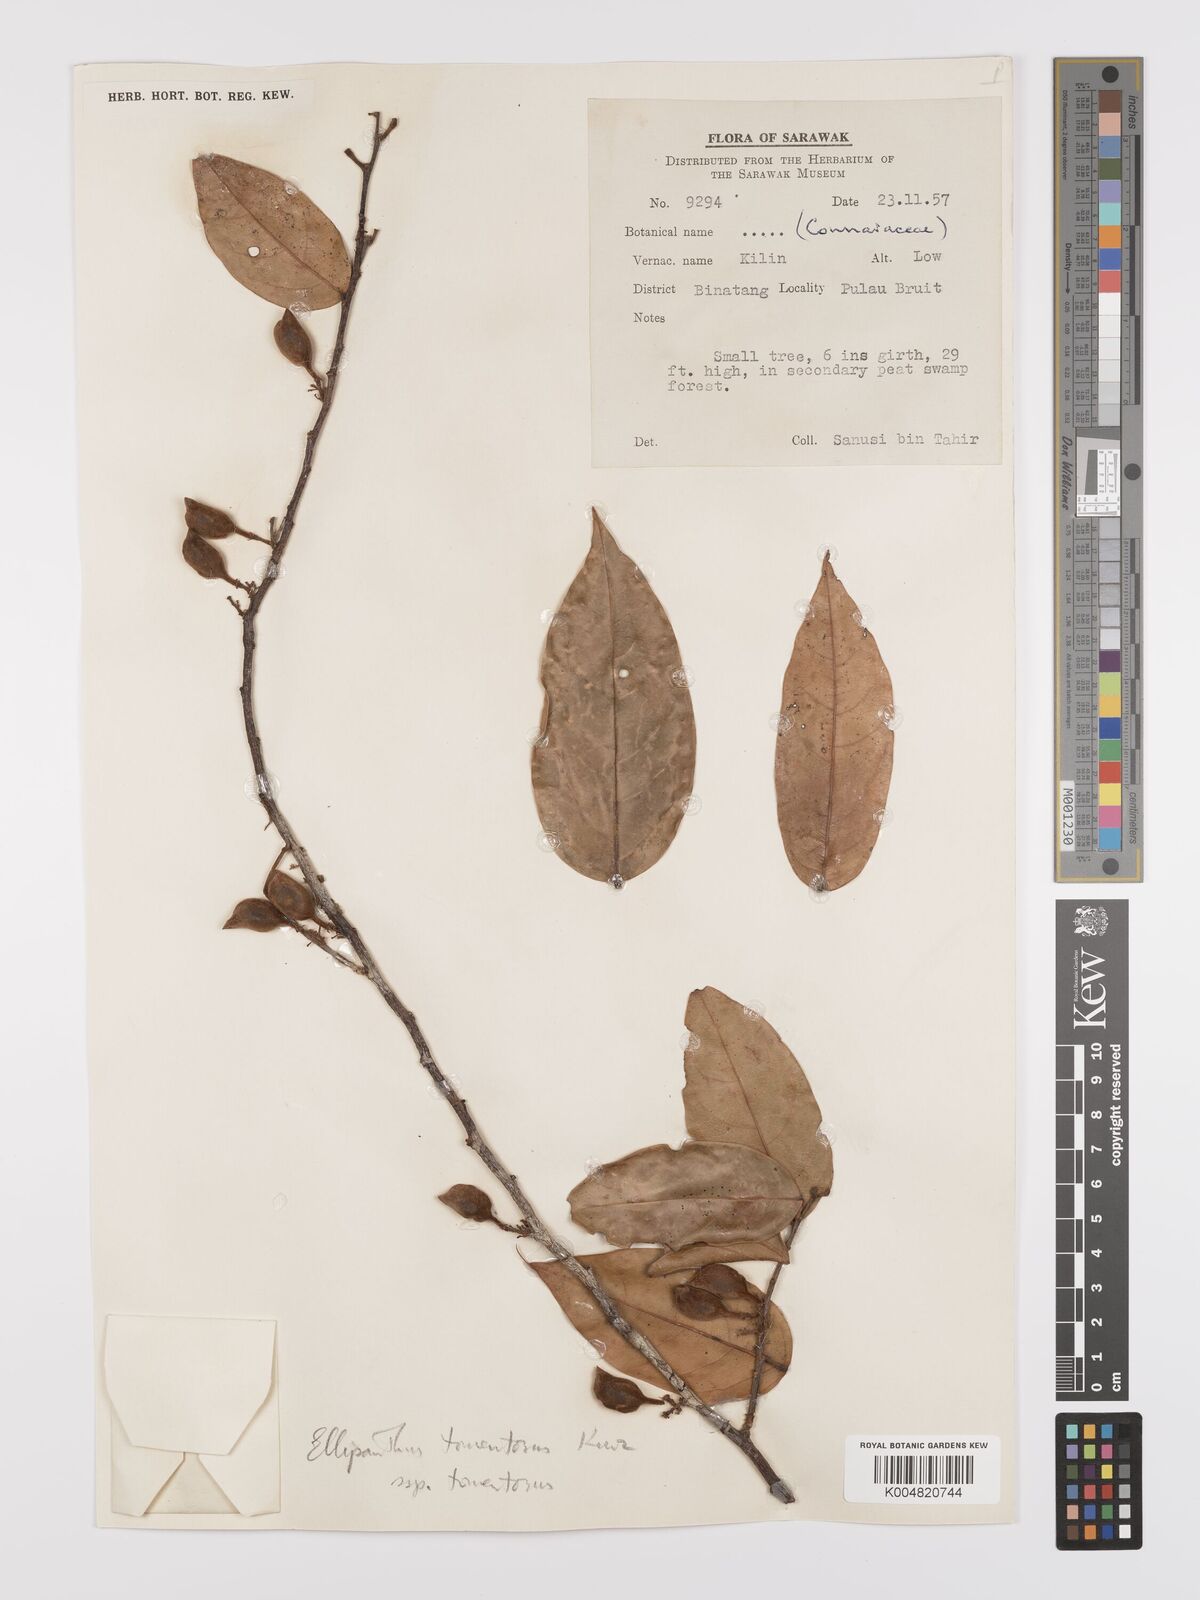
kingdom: Plantae
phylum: Tracheophyta
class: Magnoliopsida
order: Oxalidales
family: Connaraceae
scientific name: Connaraceae
